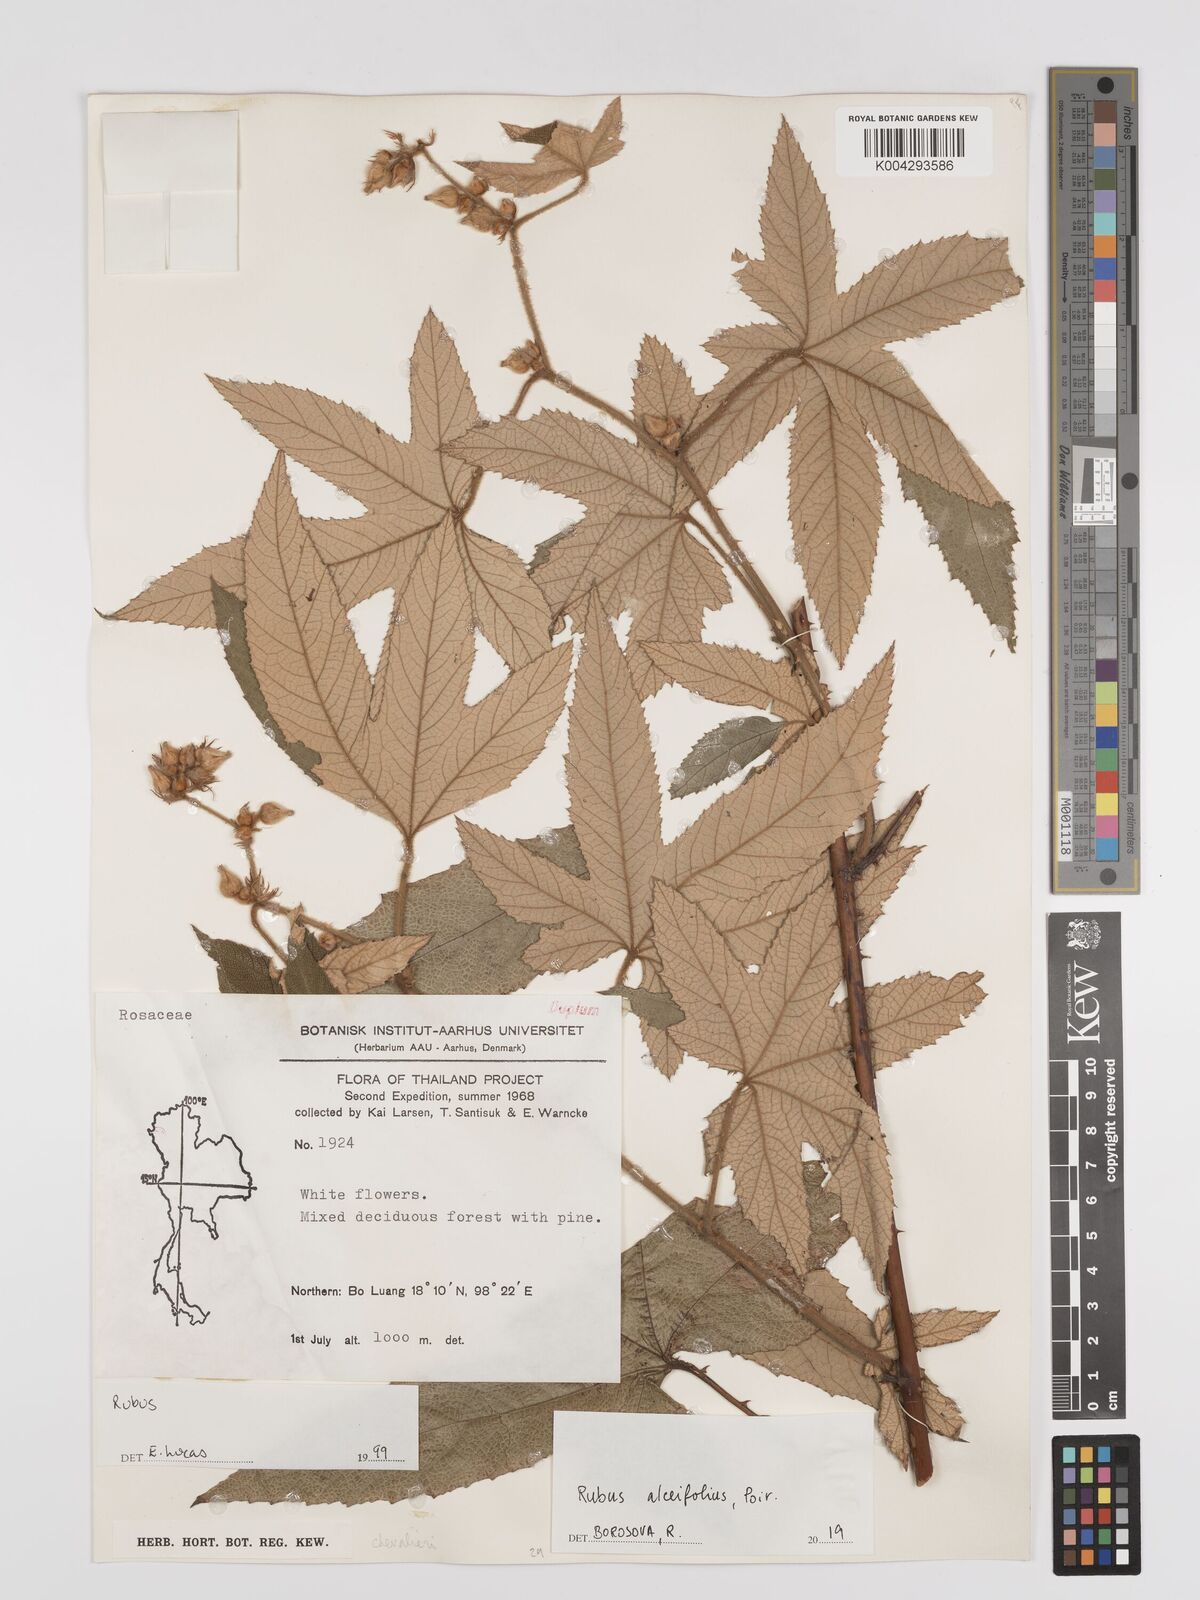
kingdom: Plantae
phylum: Tracheophyta
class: Magnoliopsida
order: Rosales
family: Rosaceae
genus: Rubus
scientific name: Rubus alceifolius
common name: Giant bramble
